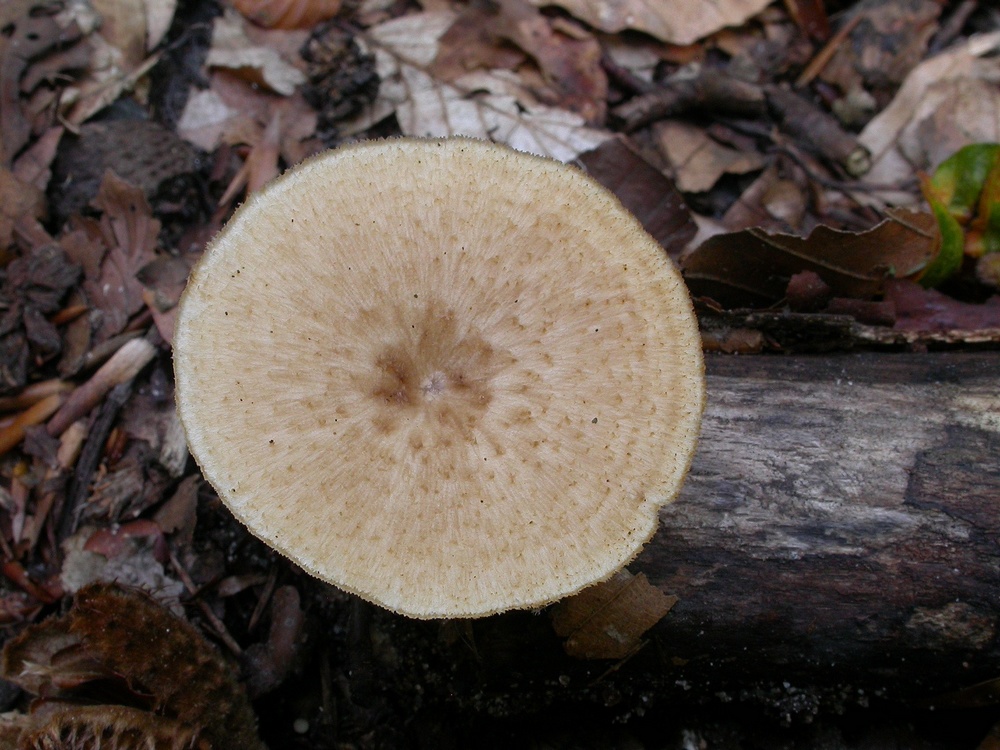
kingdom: Fungi
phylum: Basidiomycota
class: Agaricomycetes
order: Polyporales
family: Polyporaceae
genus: Polyporus
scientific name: Polyporus tuberaster
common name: knoldet stilkporesvamp
